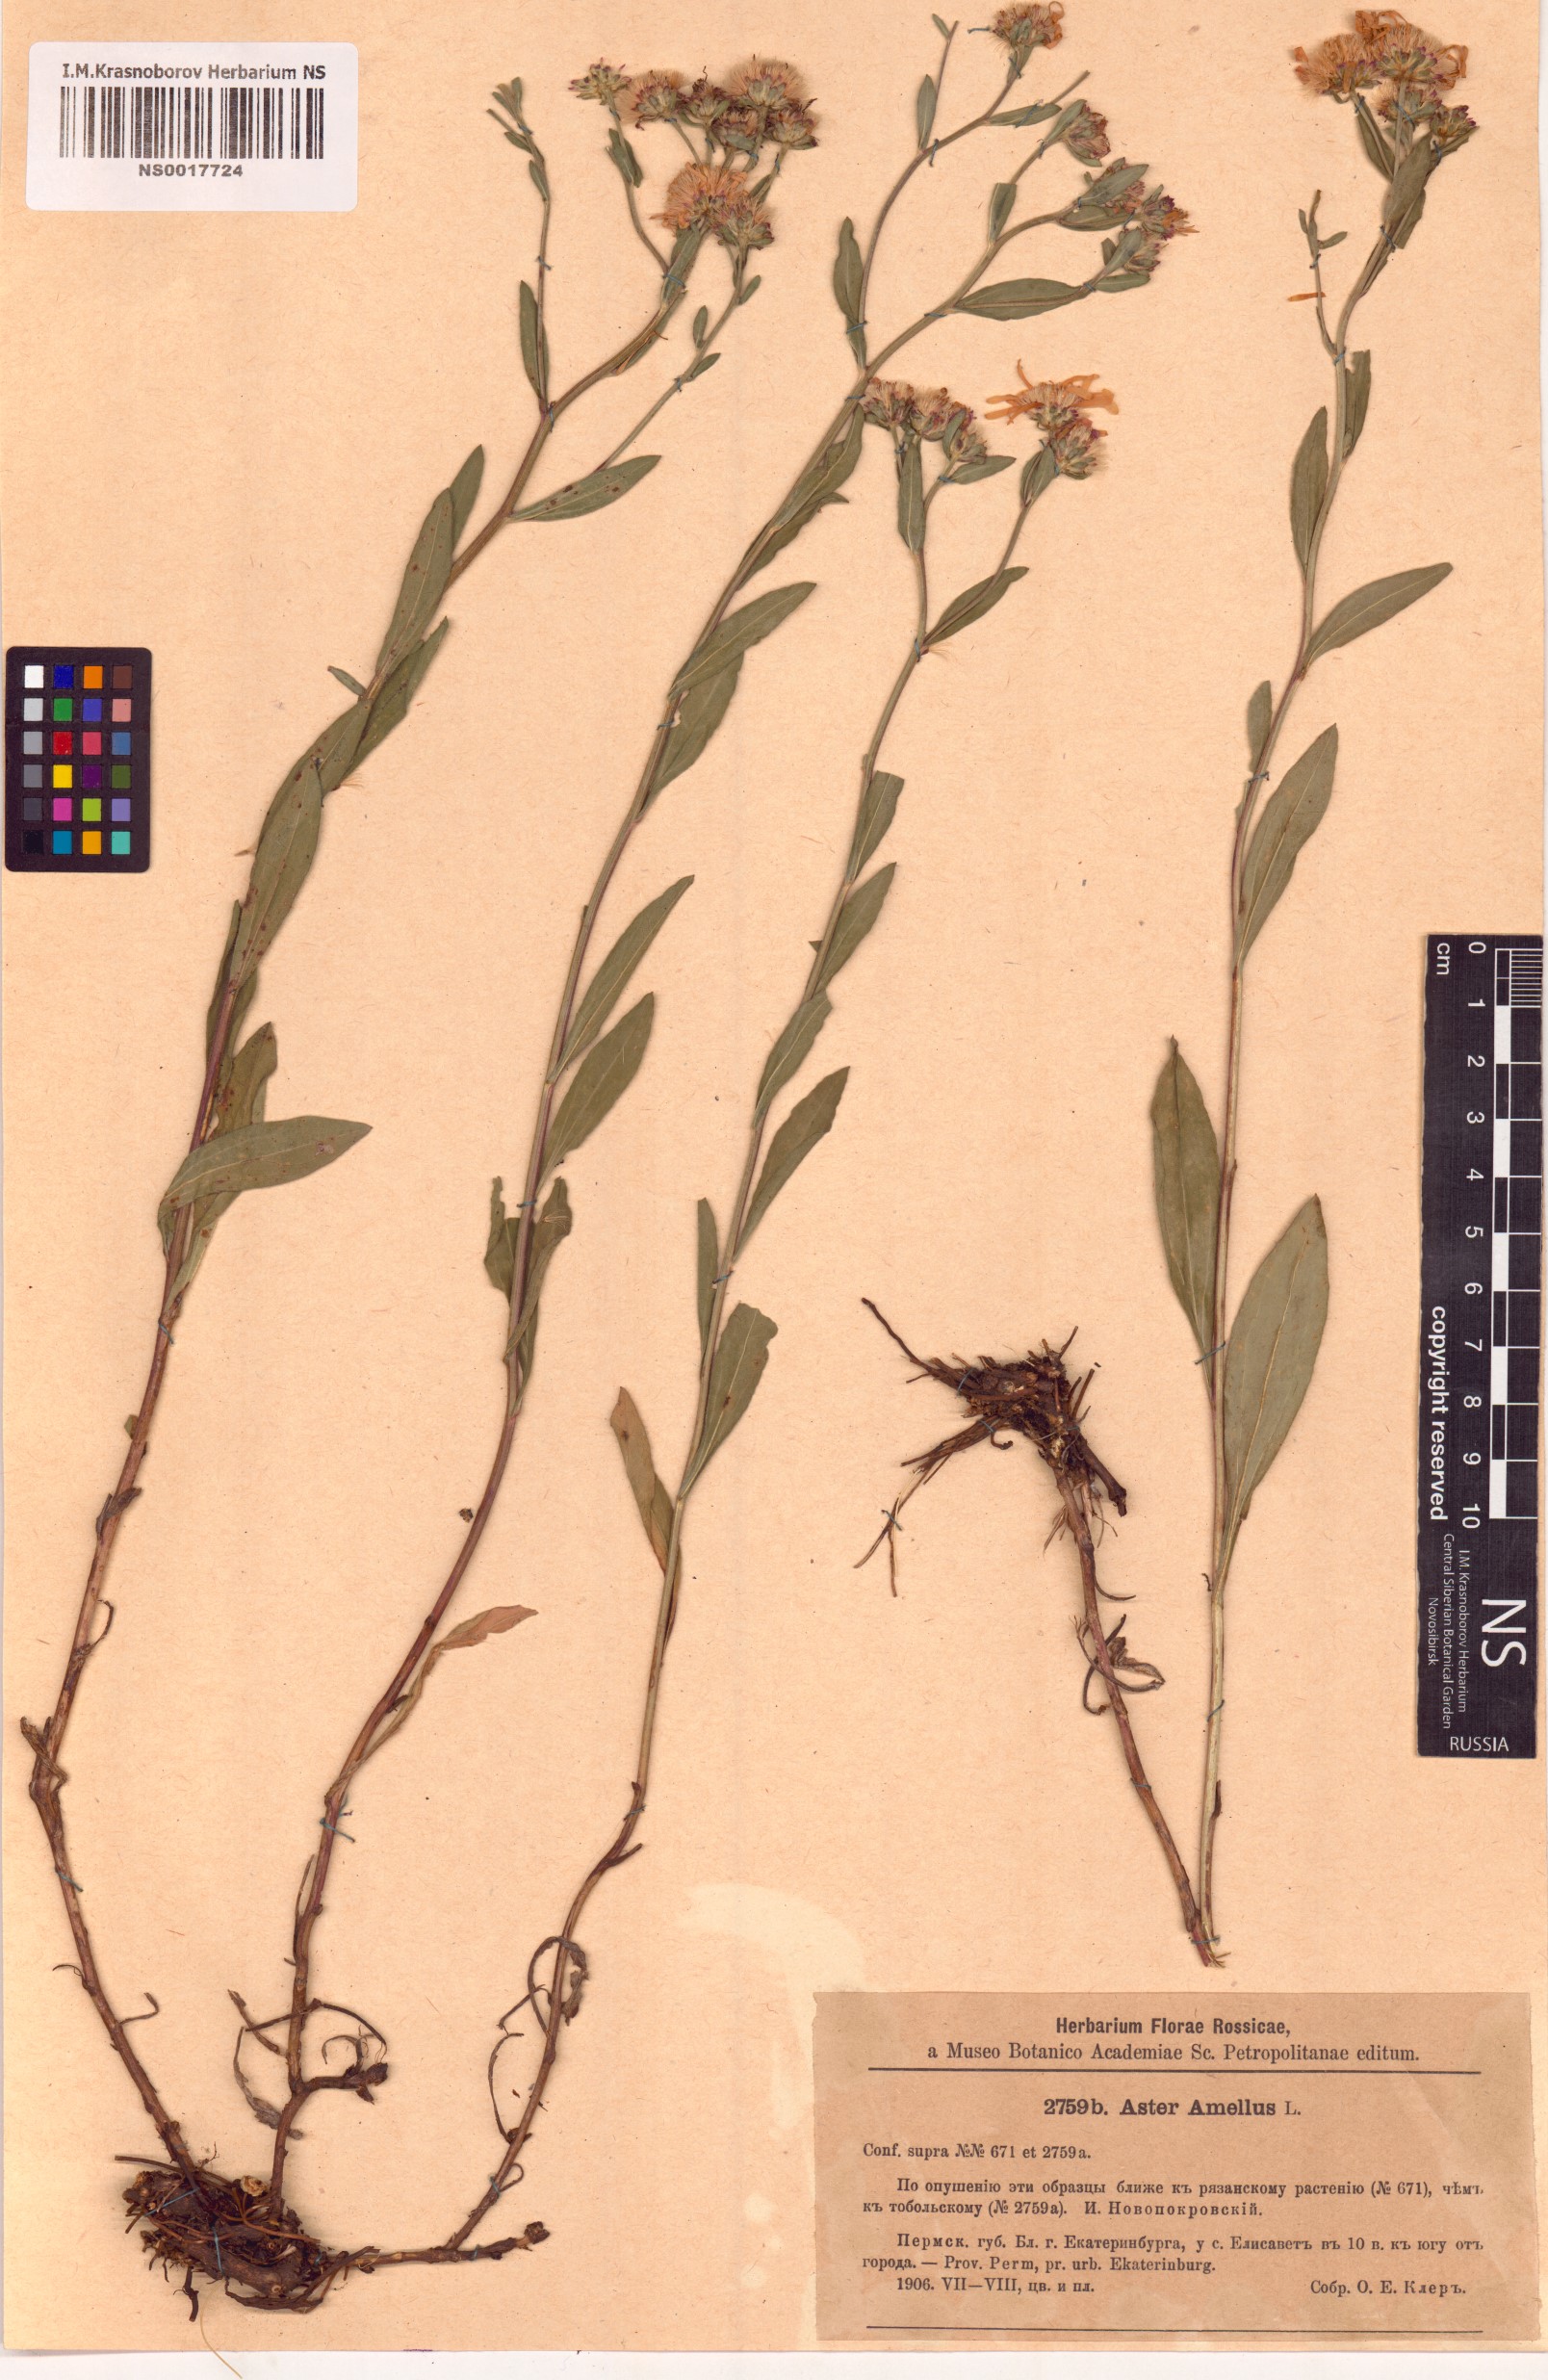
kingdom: Plantae
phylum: Tracheophyta
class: Magnoliopsida
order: Asterales
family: Asteraceae
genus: Aster
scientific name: Aster amellus
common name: European michaelmas daisy
